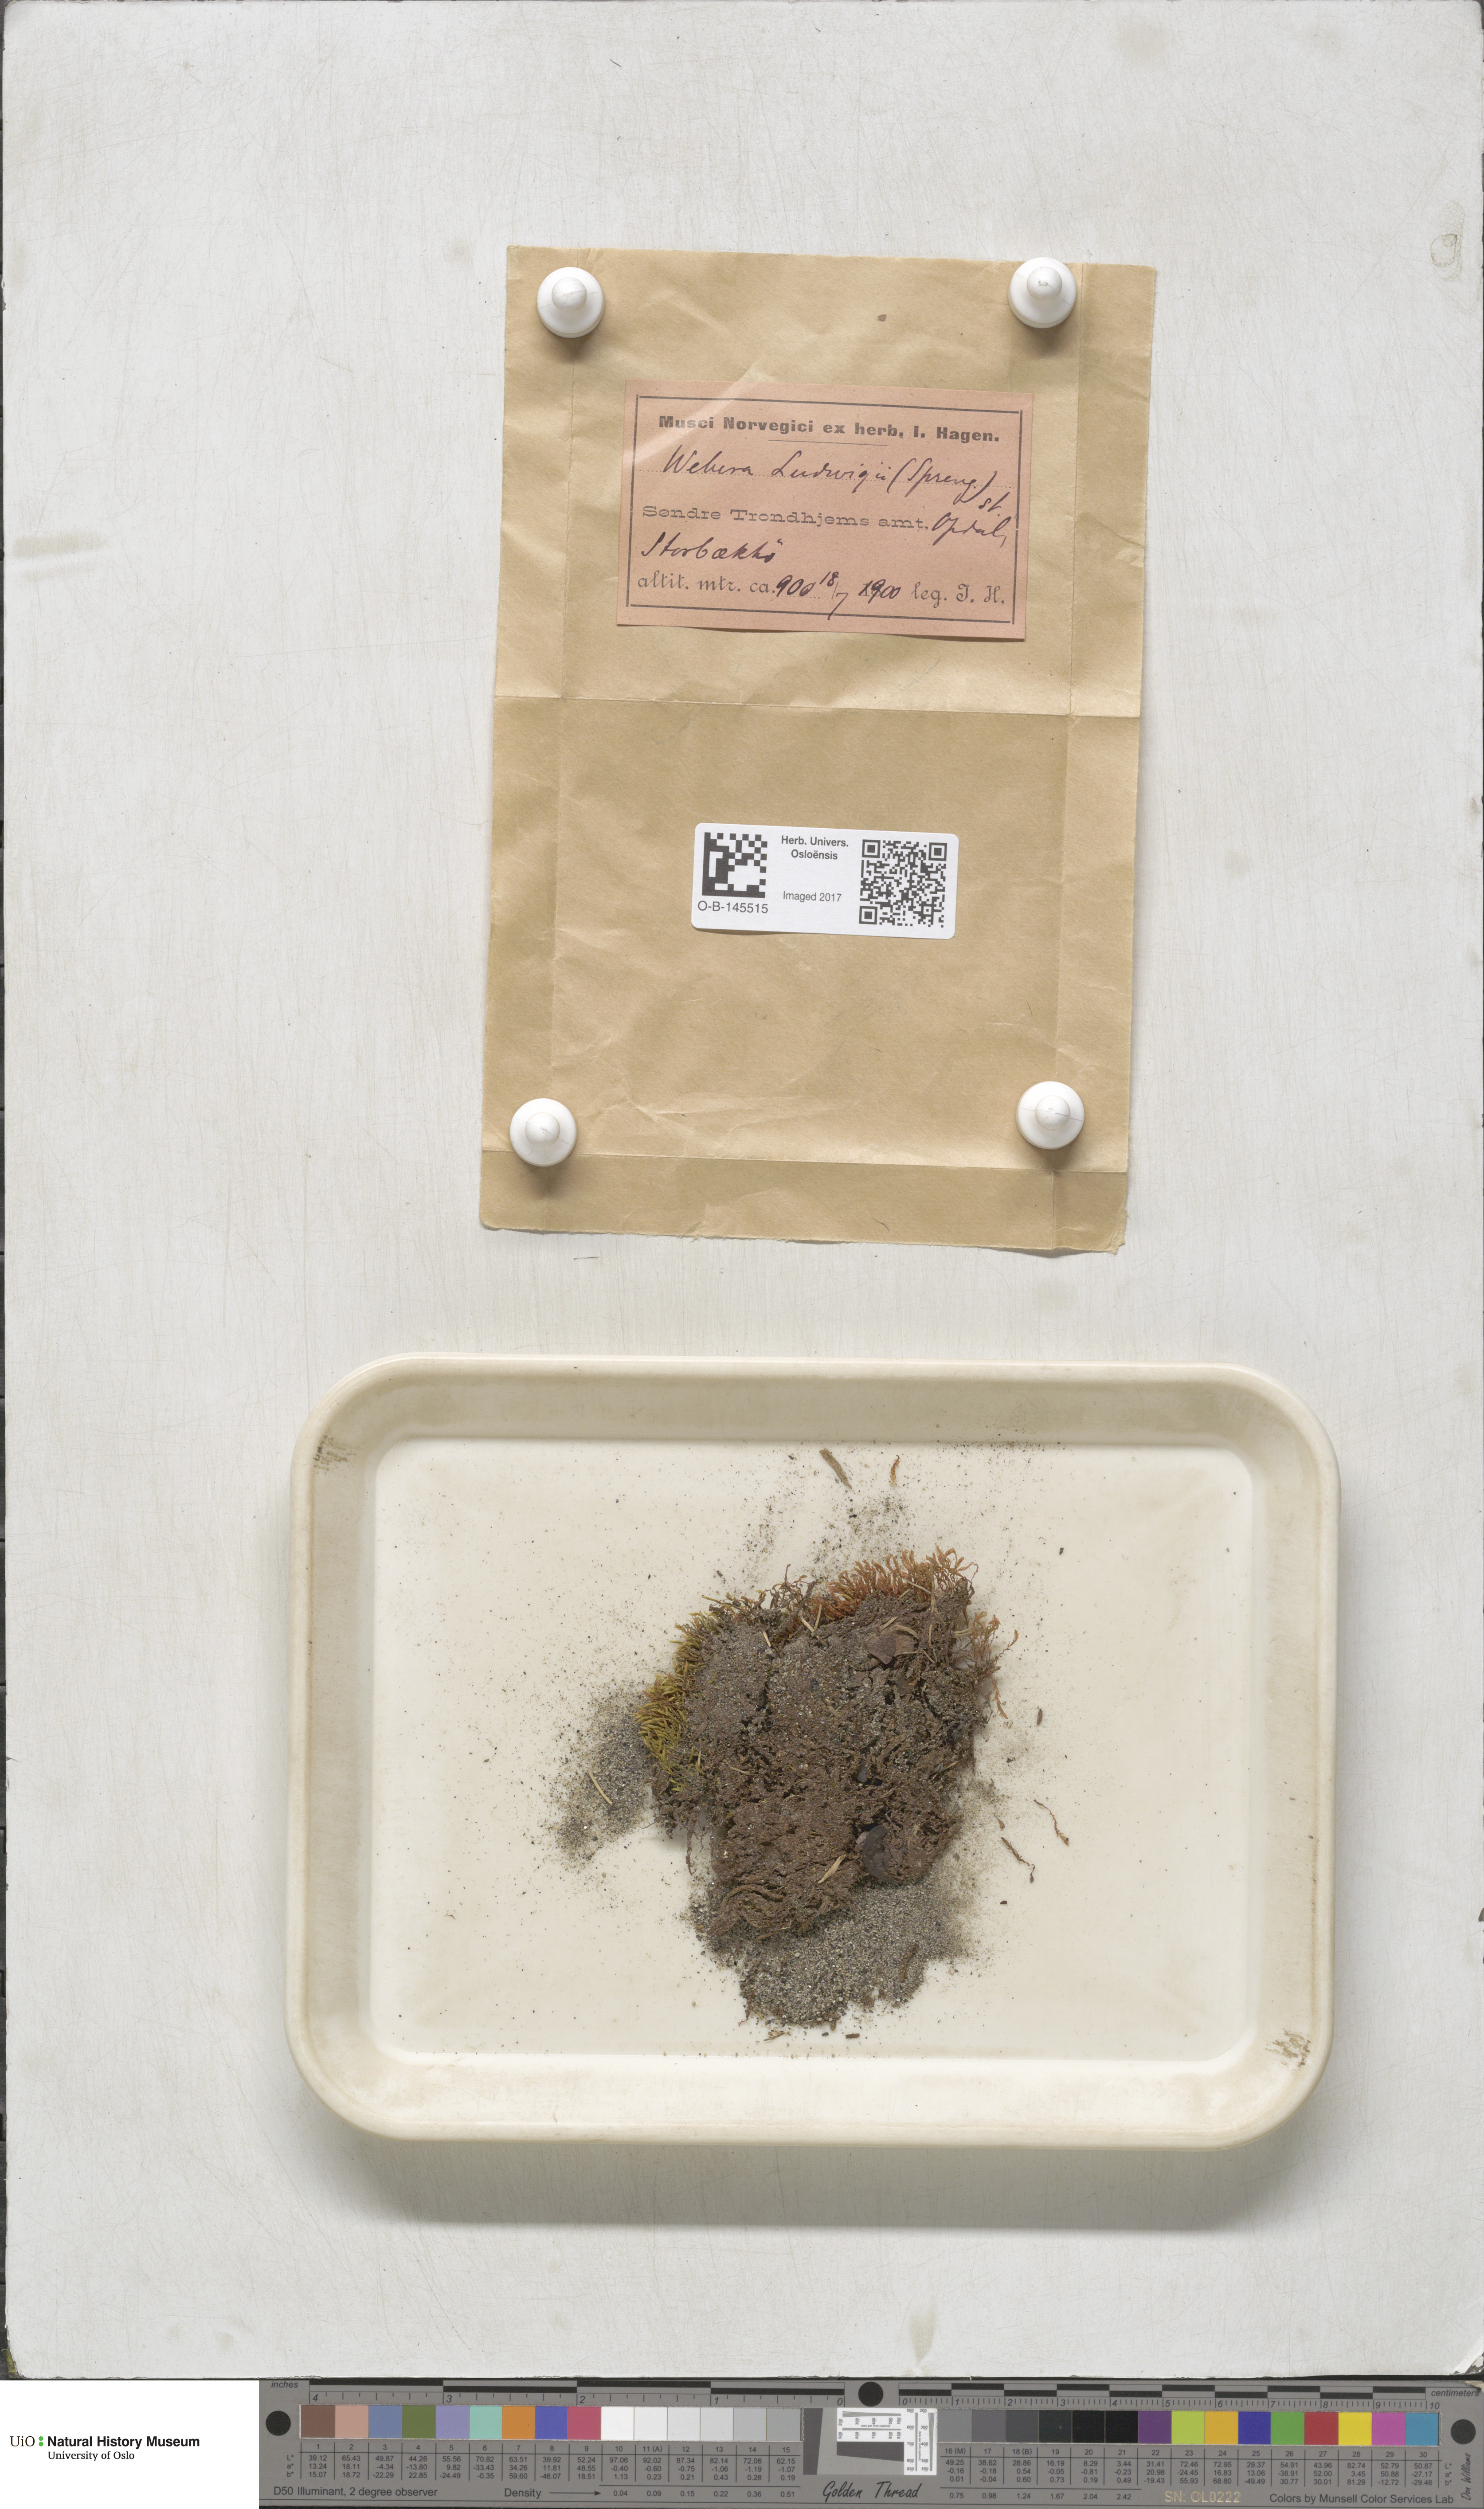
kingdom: Plantae
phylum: Bryophyta
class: Bryopsida
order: Bryales
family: Mniaceae
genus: Pohlia
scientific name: Pohlia ludwigii
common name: Ludwig's thread-moss
